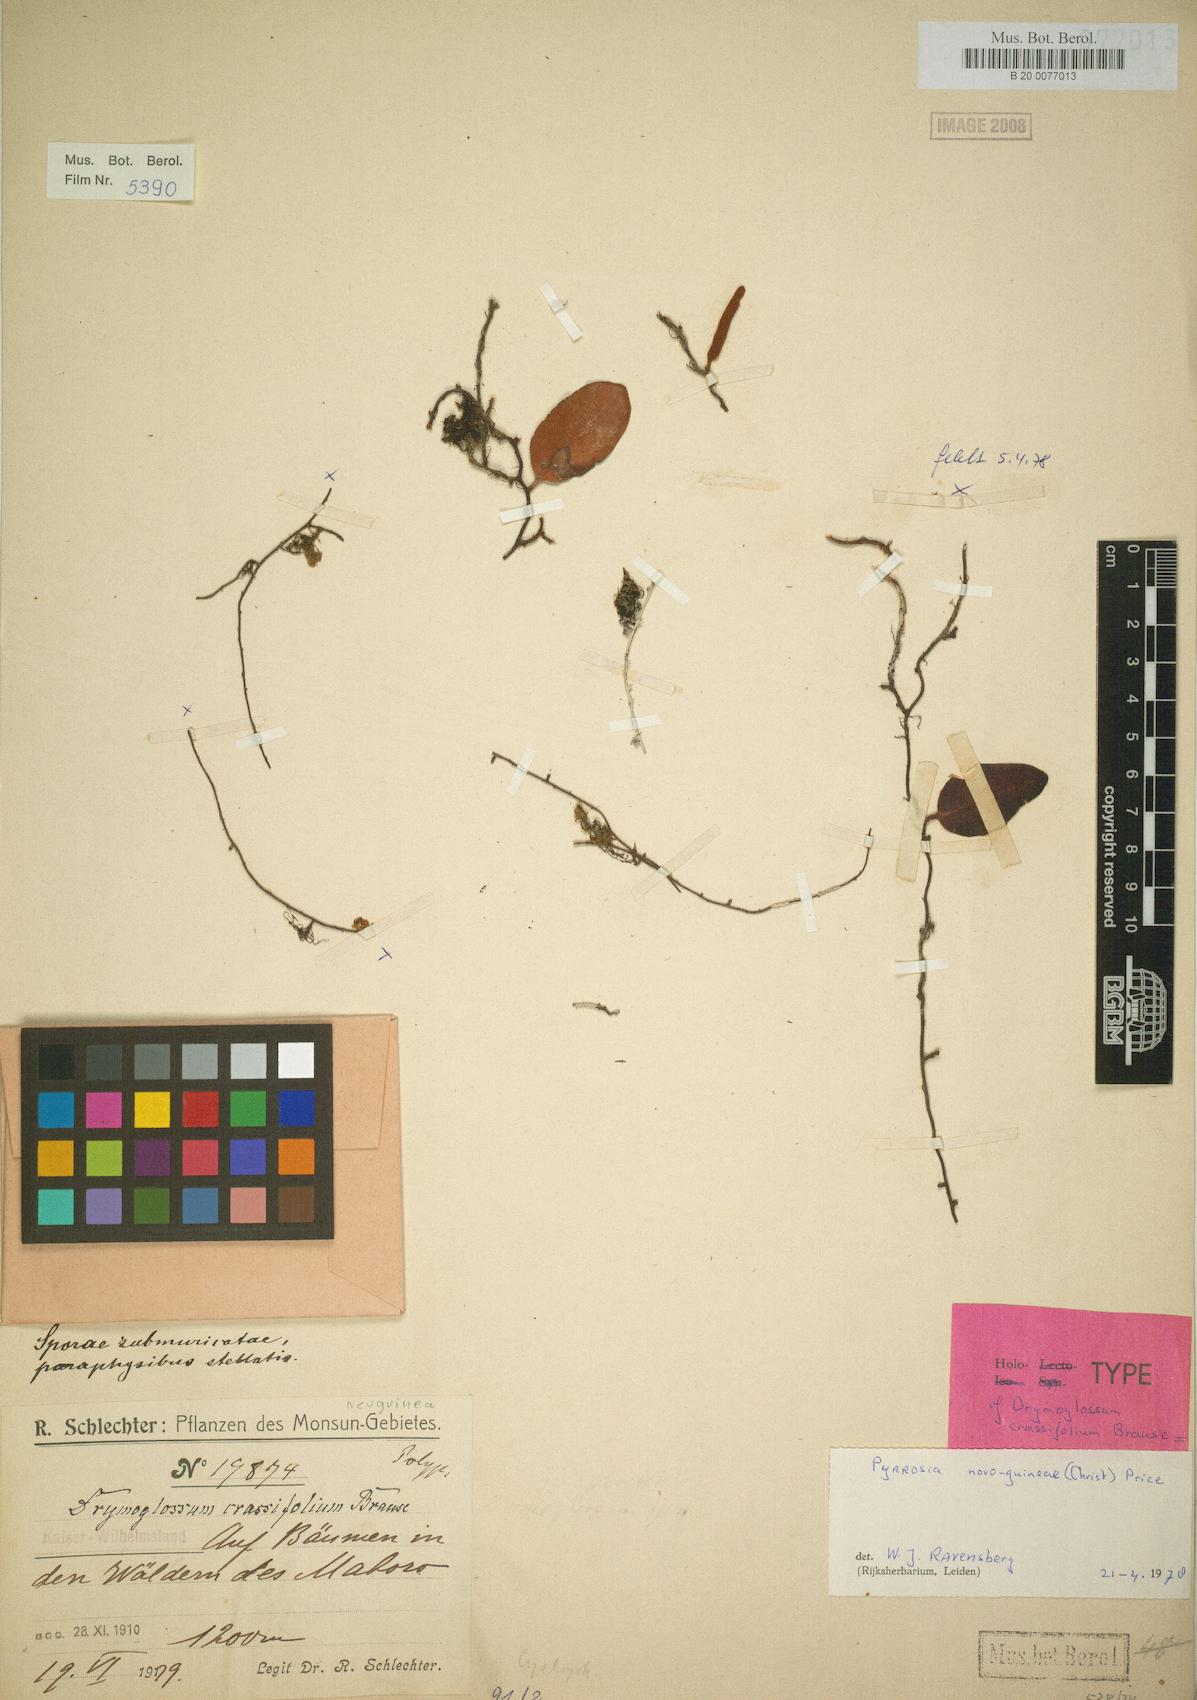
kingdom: Plantae
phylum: Tracheophyta
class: Polypodiopsida
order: Polypodiales
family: Polypodiaceae
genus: Pyrrosia
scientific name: Pyrrosia novoguineae
